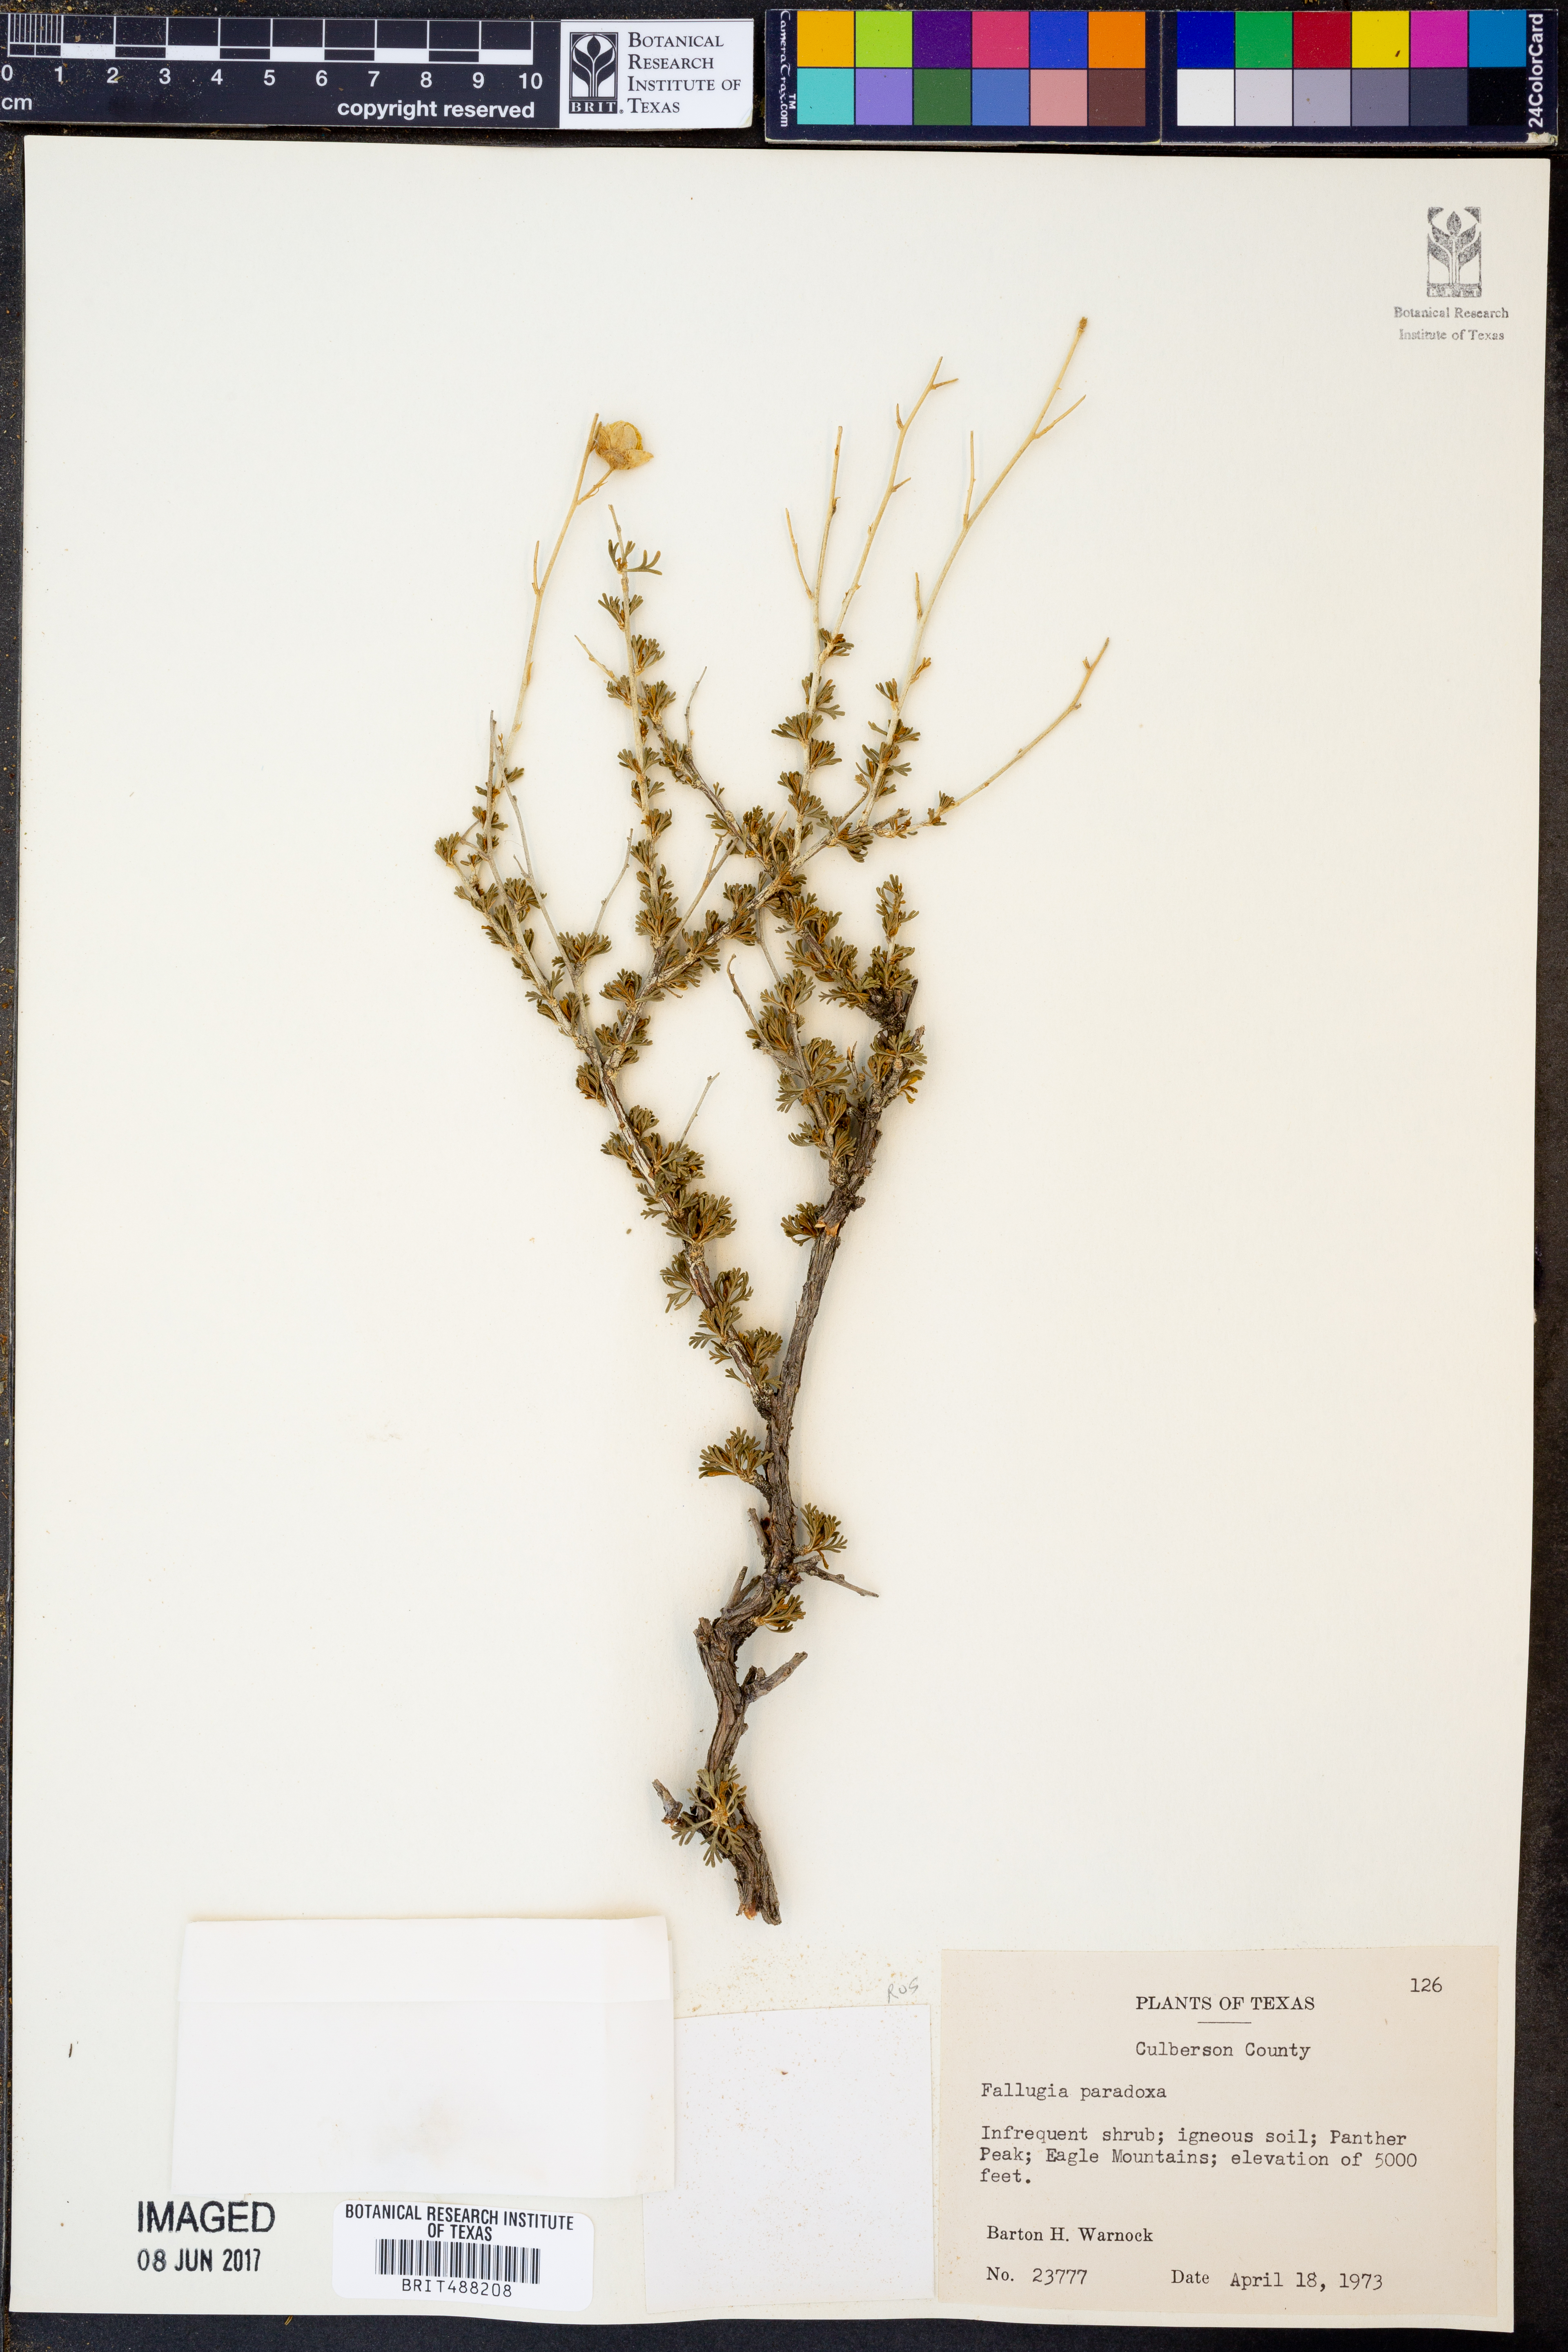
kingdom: Plantae
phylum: Tracheophyta
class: Magnoliopsida
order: Rosales
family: Rosaceae
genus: Fallugia
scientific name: Fallugia paradoxa
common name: Apache-plume
